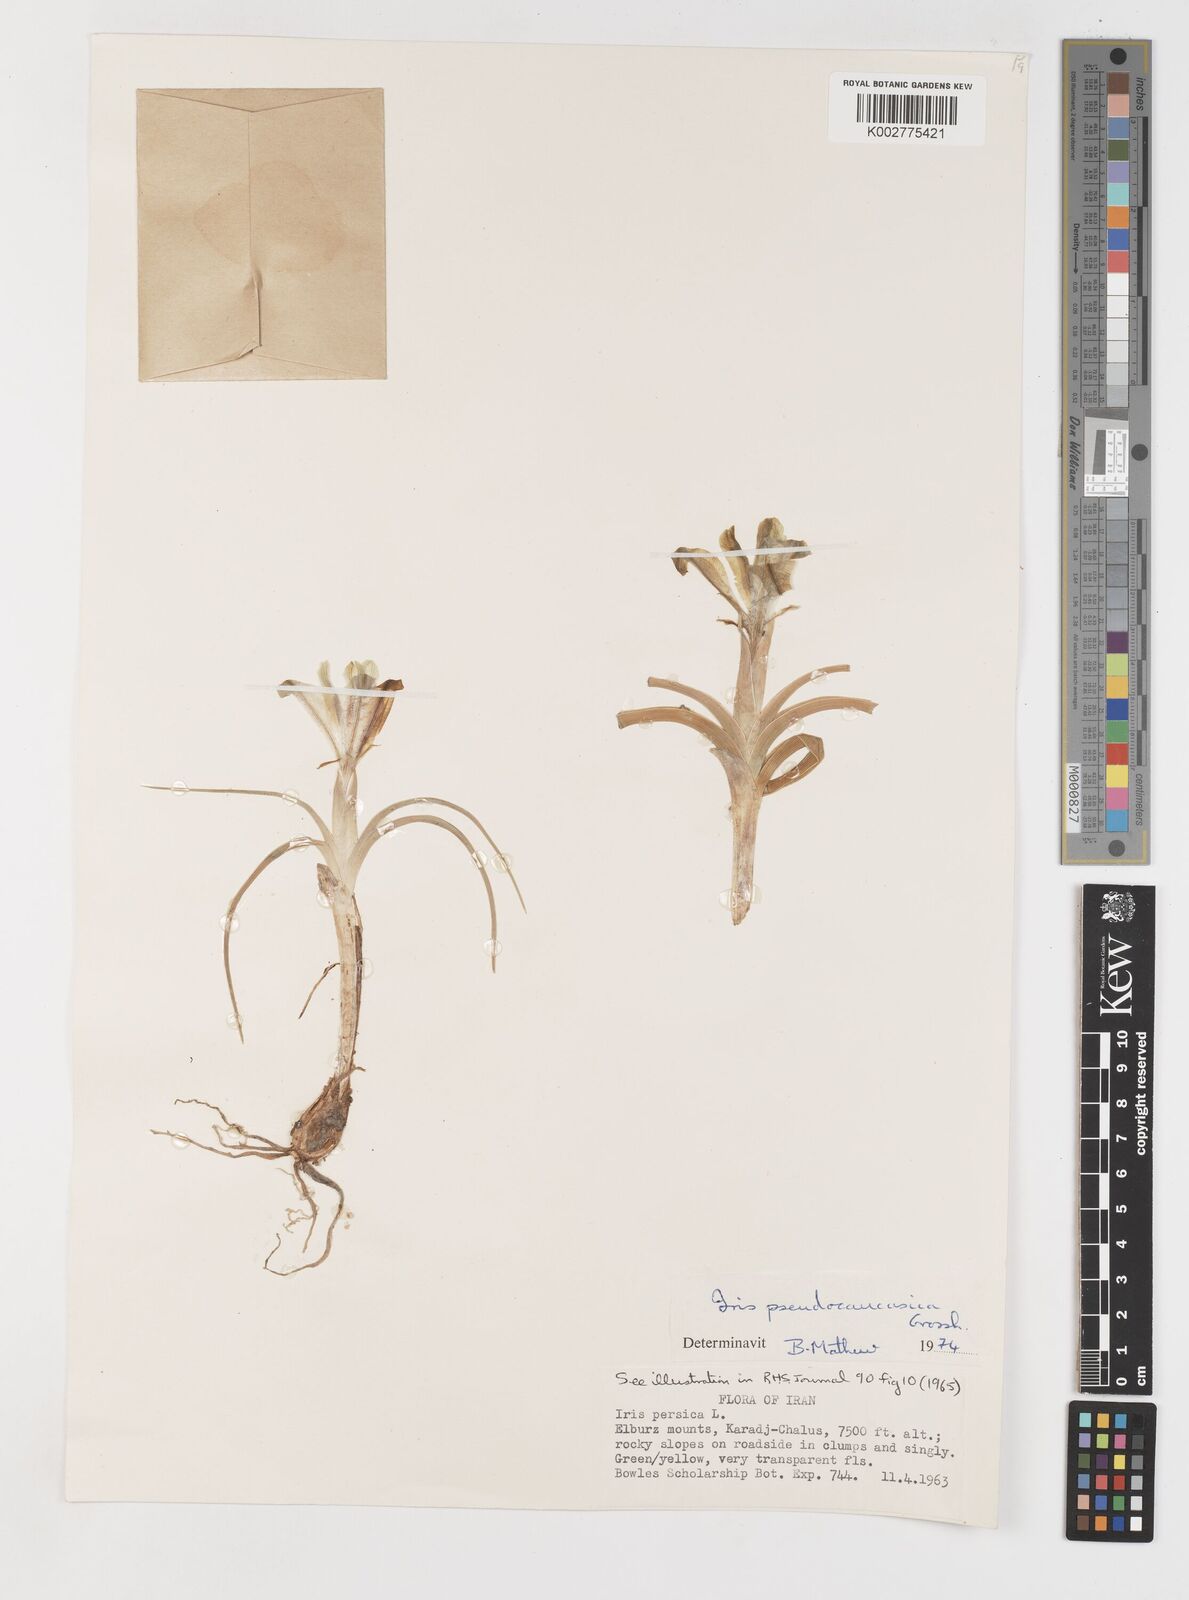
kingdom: Plantae
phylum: Tracheophyta
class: Liliopsida
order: Asparagales
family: Iridaceae
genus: Iris
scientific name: Iris pseudocaucasica
